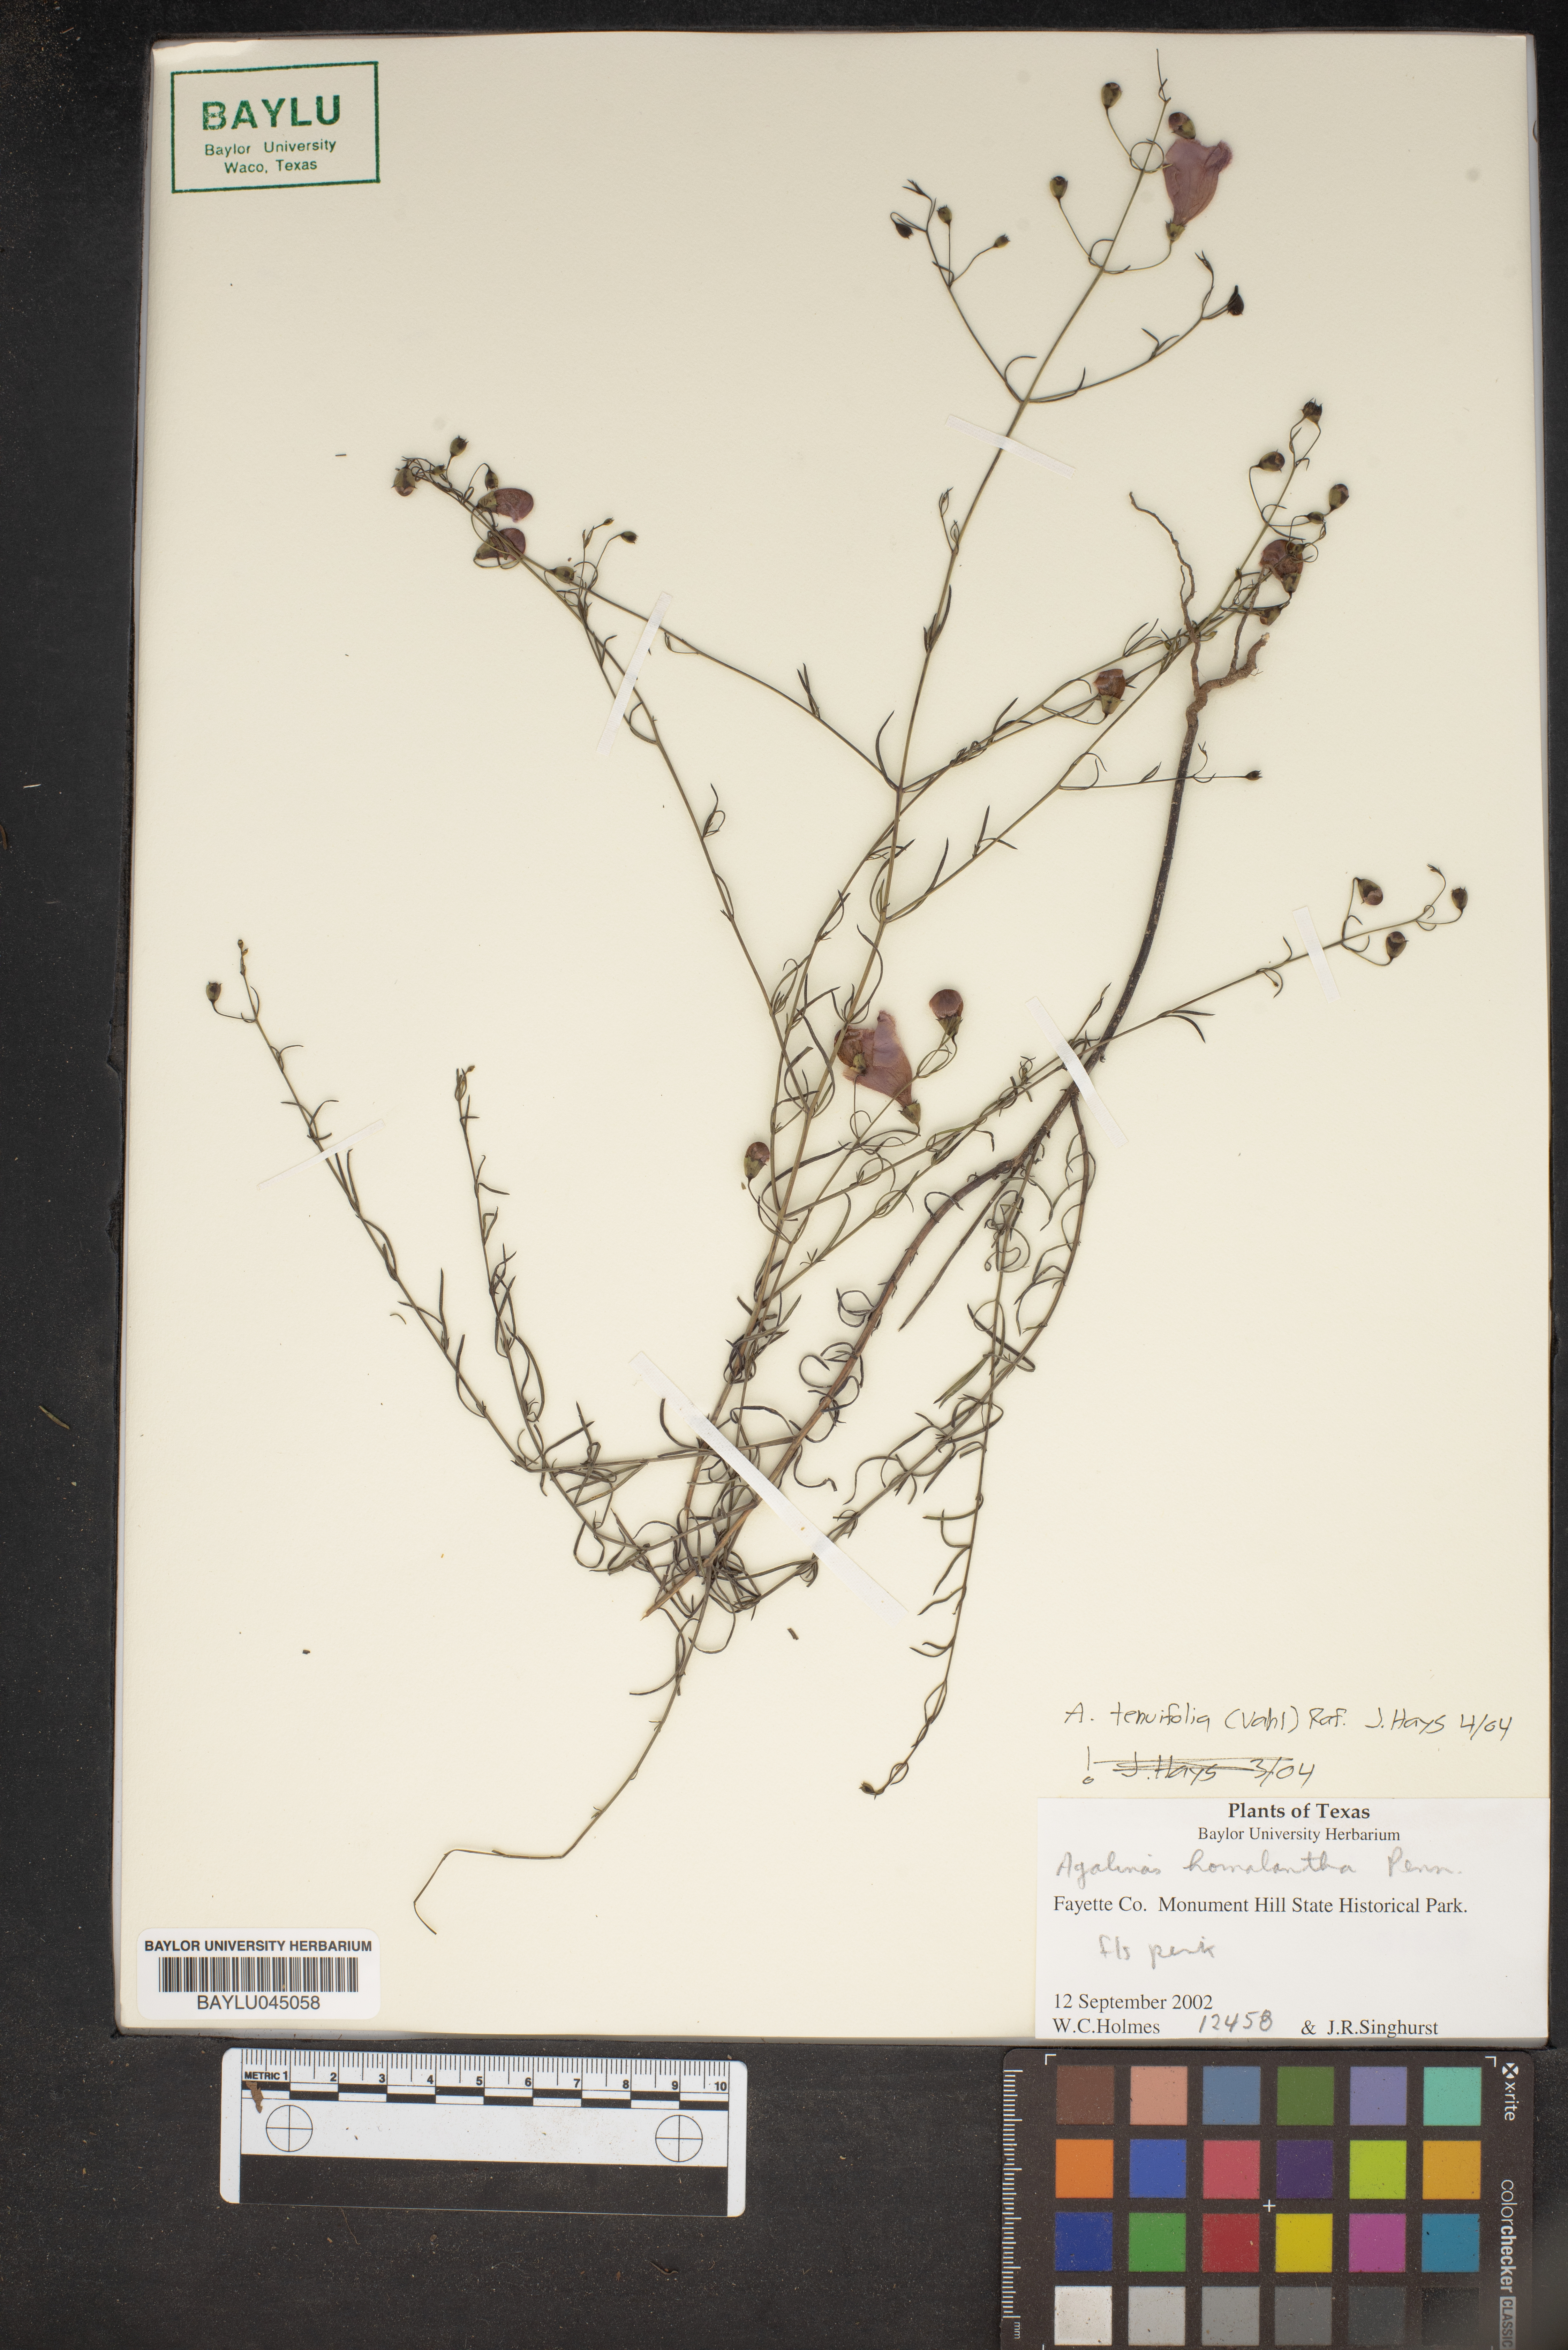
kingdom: Plantae
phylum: Tracheophyta
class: Magnoliopsida
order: Lamiales
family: Orobanchaceae
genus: Agalinis
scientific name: Agalinis homalantha
